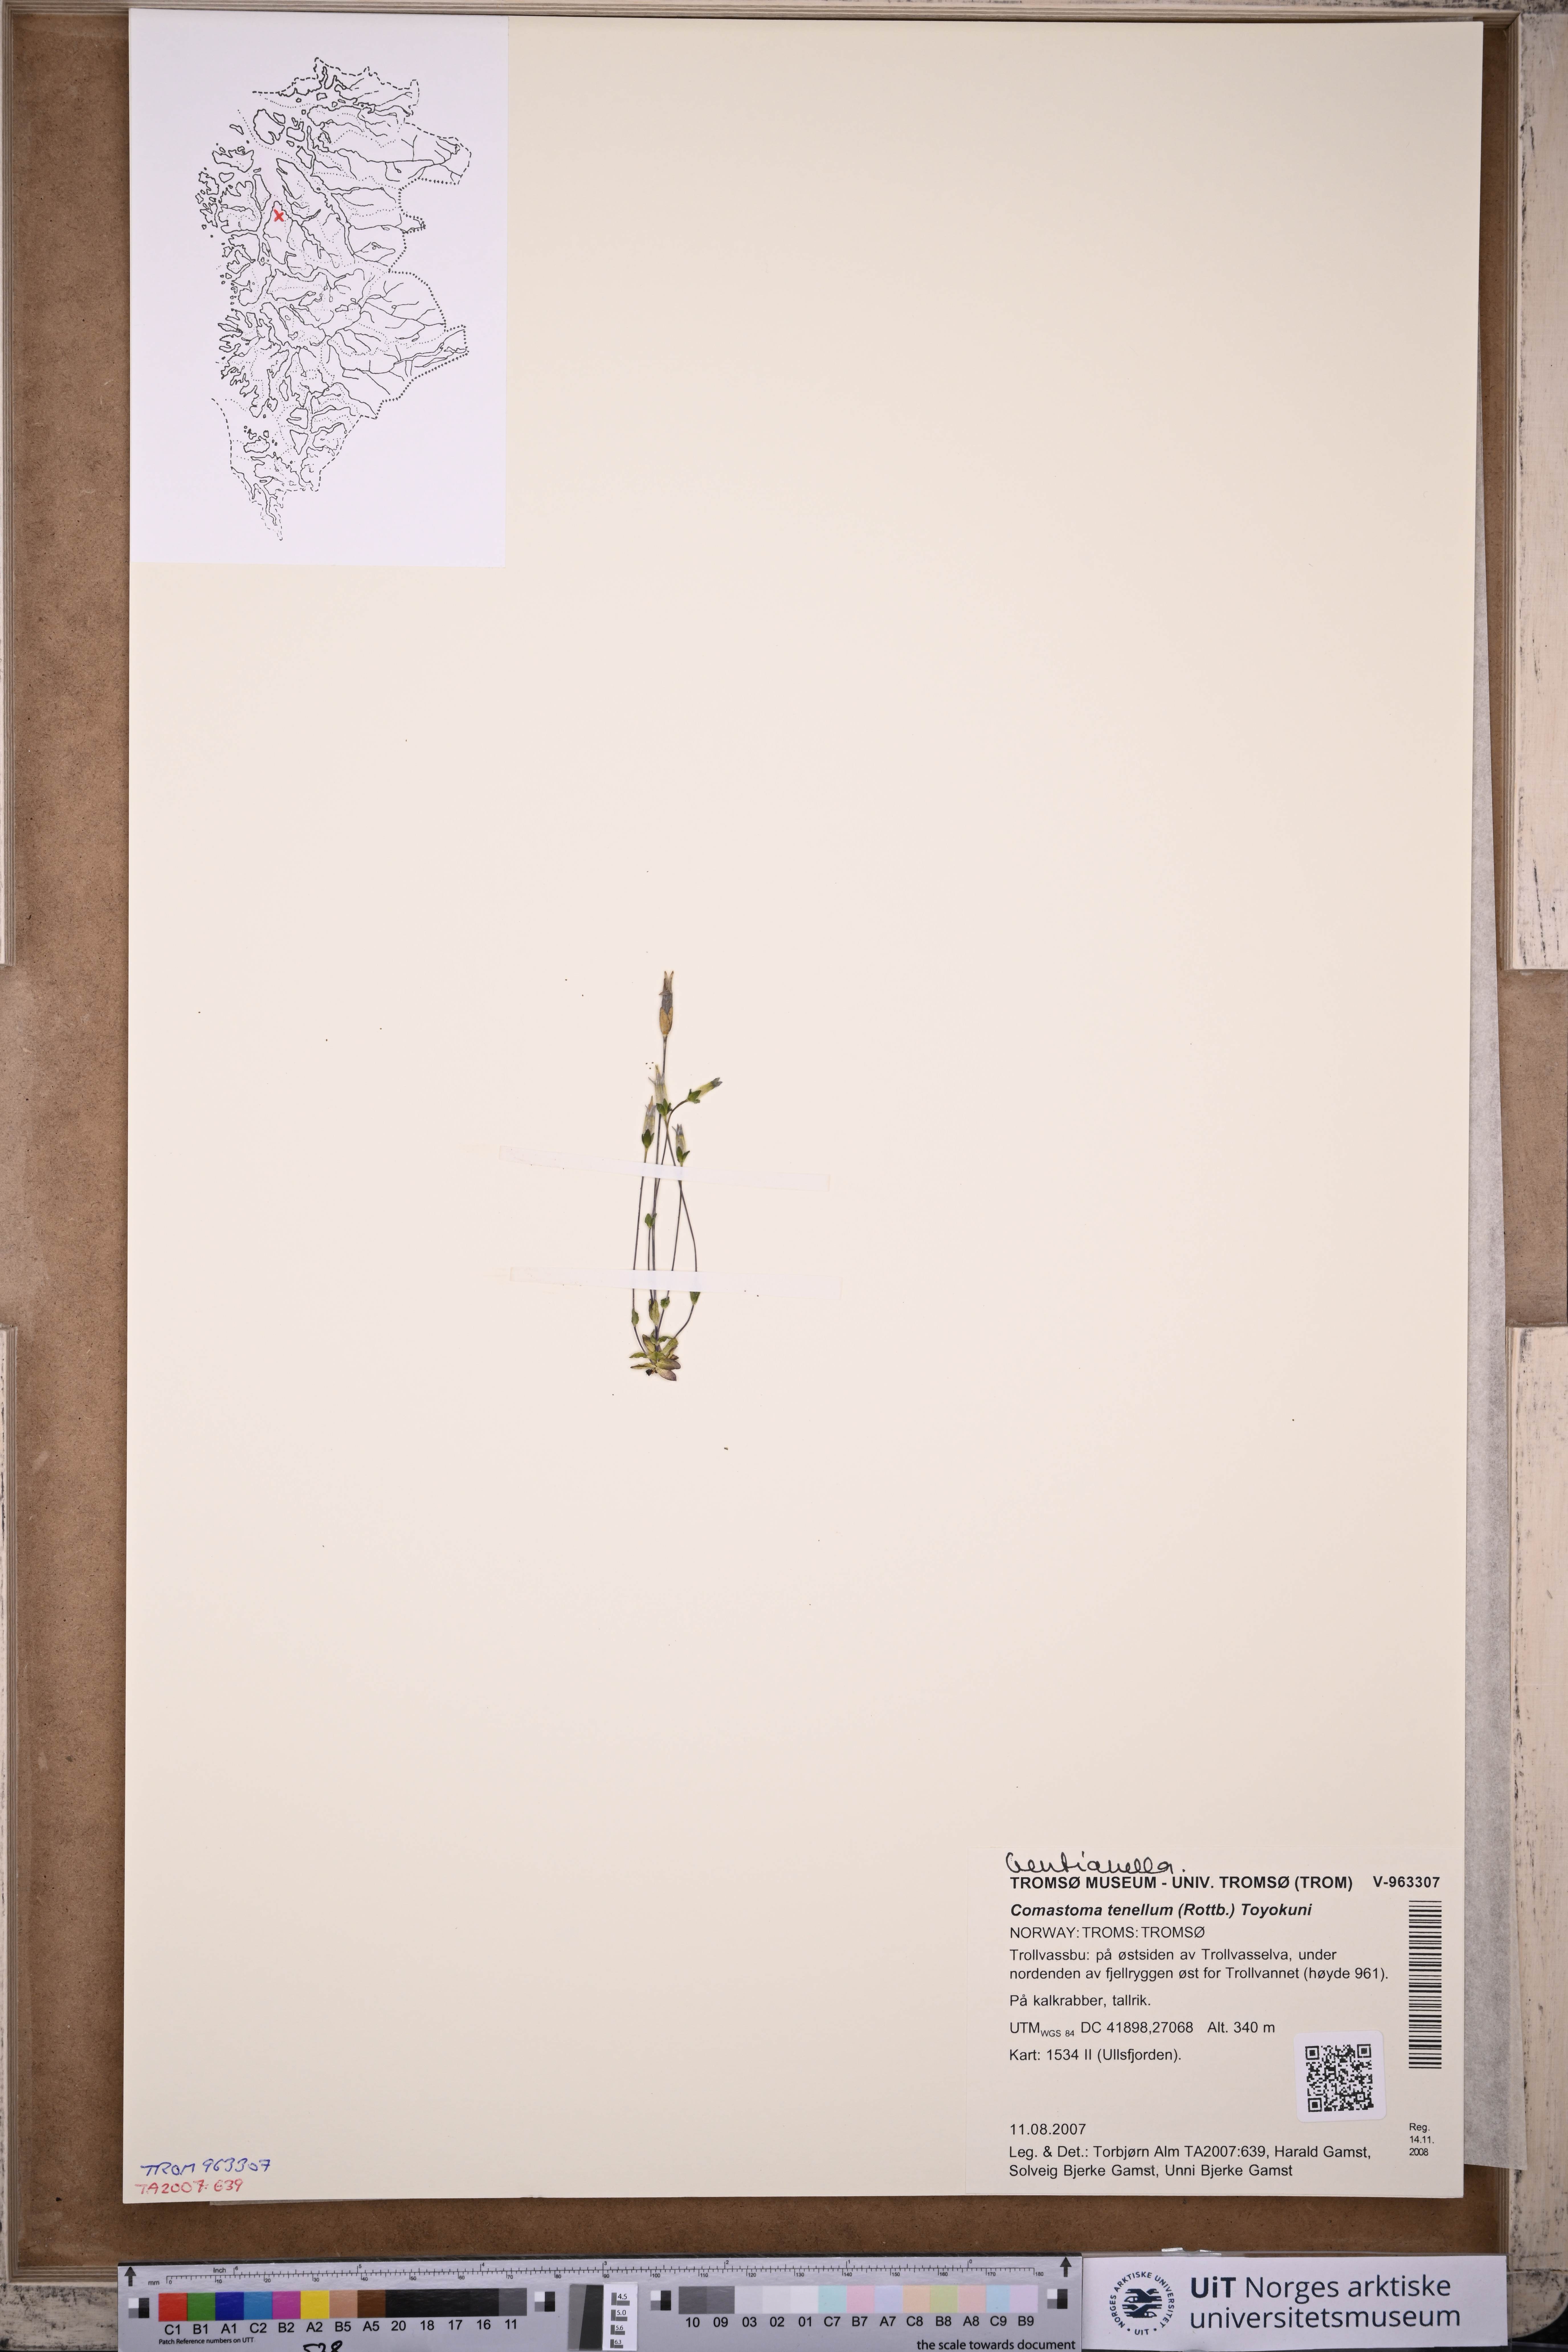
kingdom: Plantae
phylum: Tracheophyta
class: Magnoliopsida
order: Gentianales
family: Gentianaceae
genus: Comastoma
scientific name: Comastoma tenellum
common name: Dane's dwarf gentian
